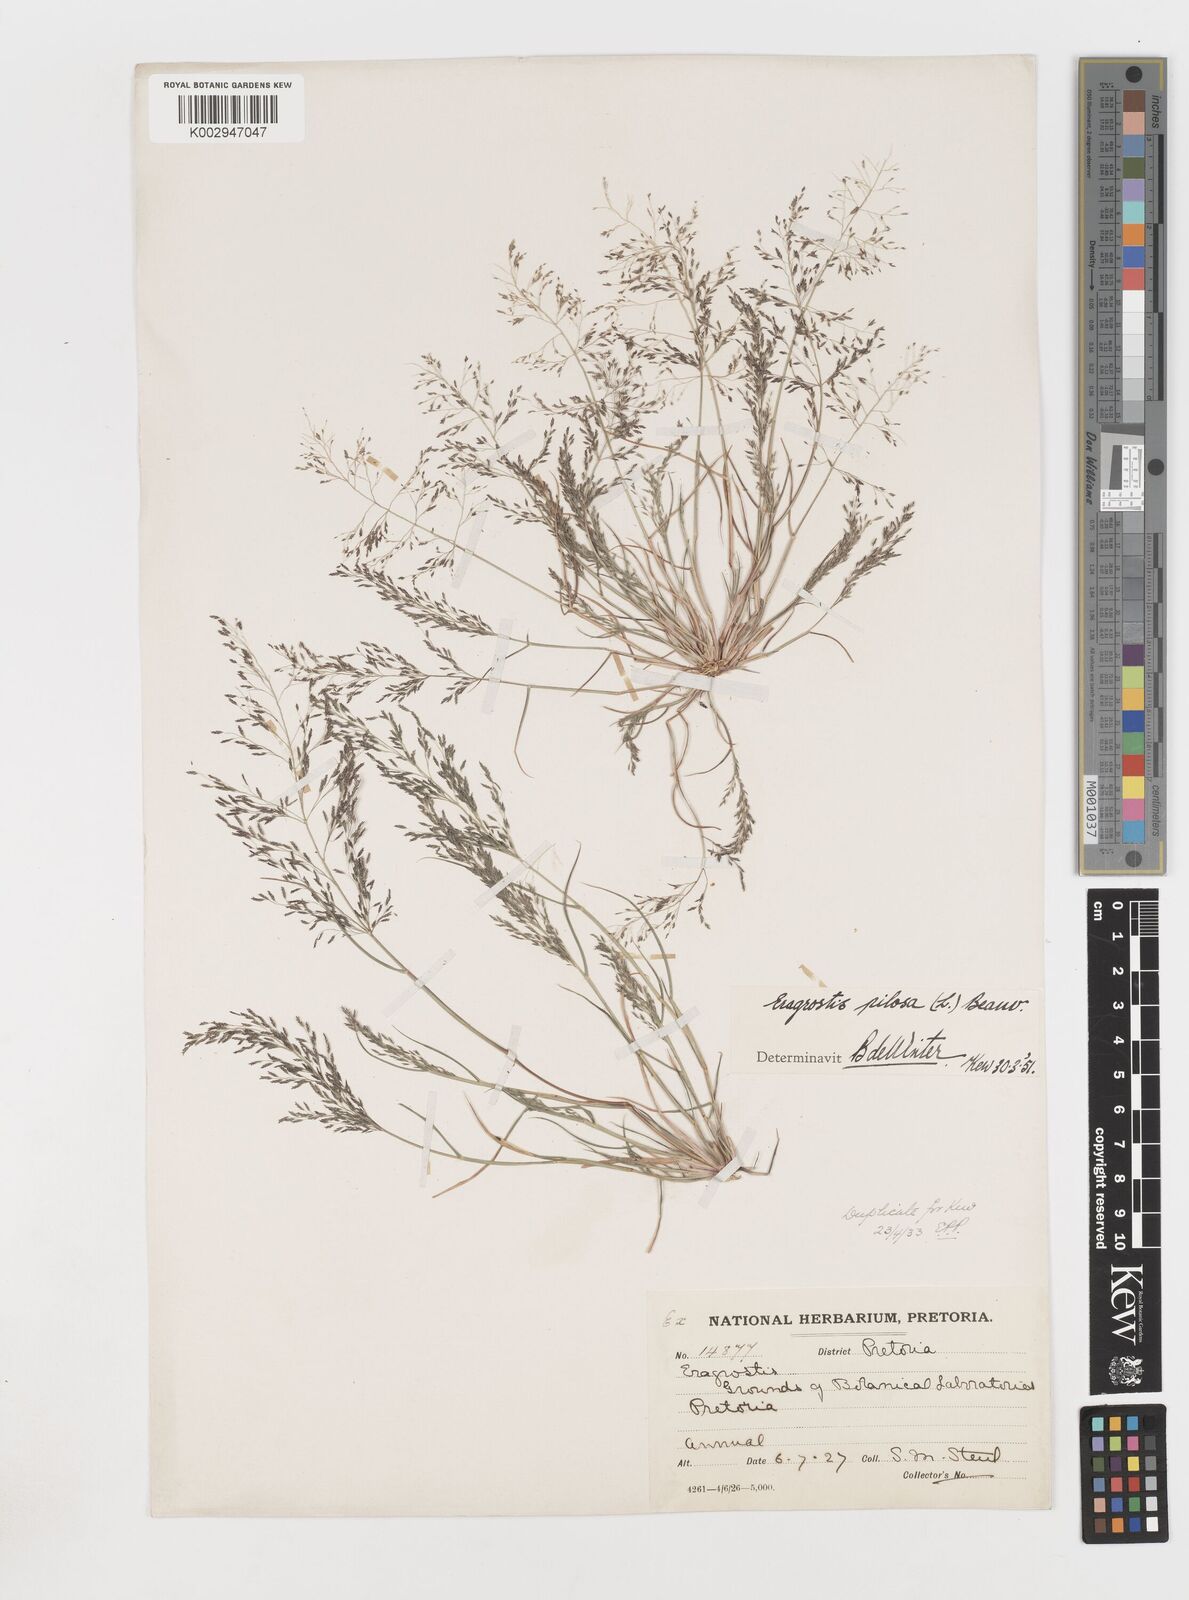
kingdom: Plantae
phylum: Tracheophyta
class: Liliopsida
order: Poales
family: Poaceae
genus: Eragrostis
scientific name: Eragrostis pilosa
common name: Indian lovegrass
